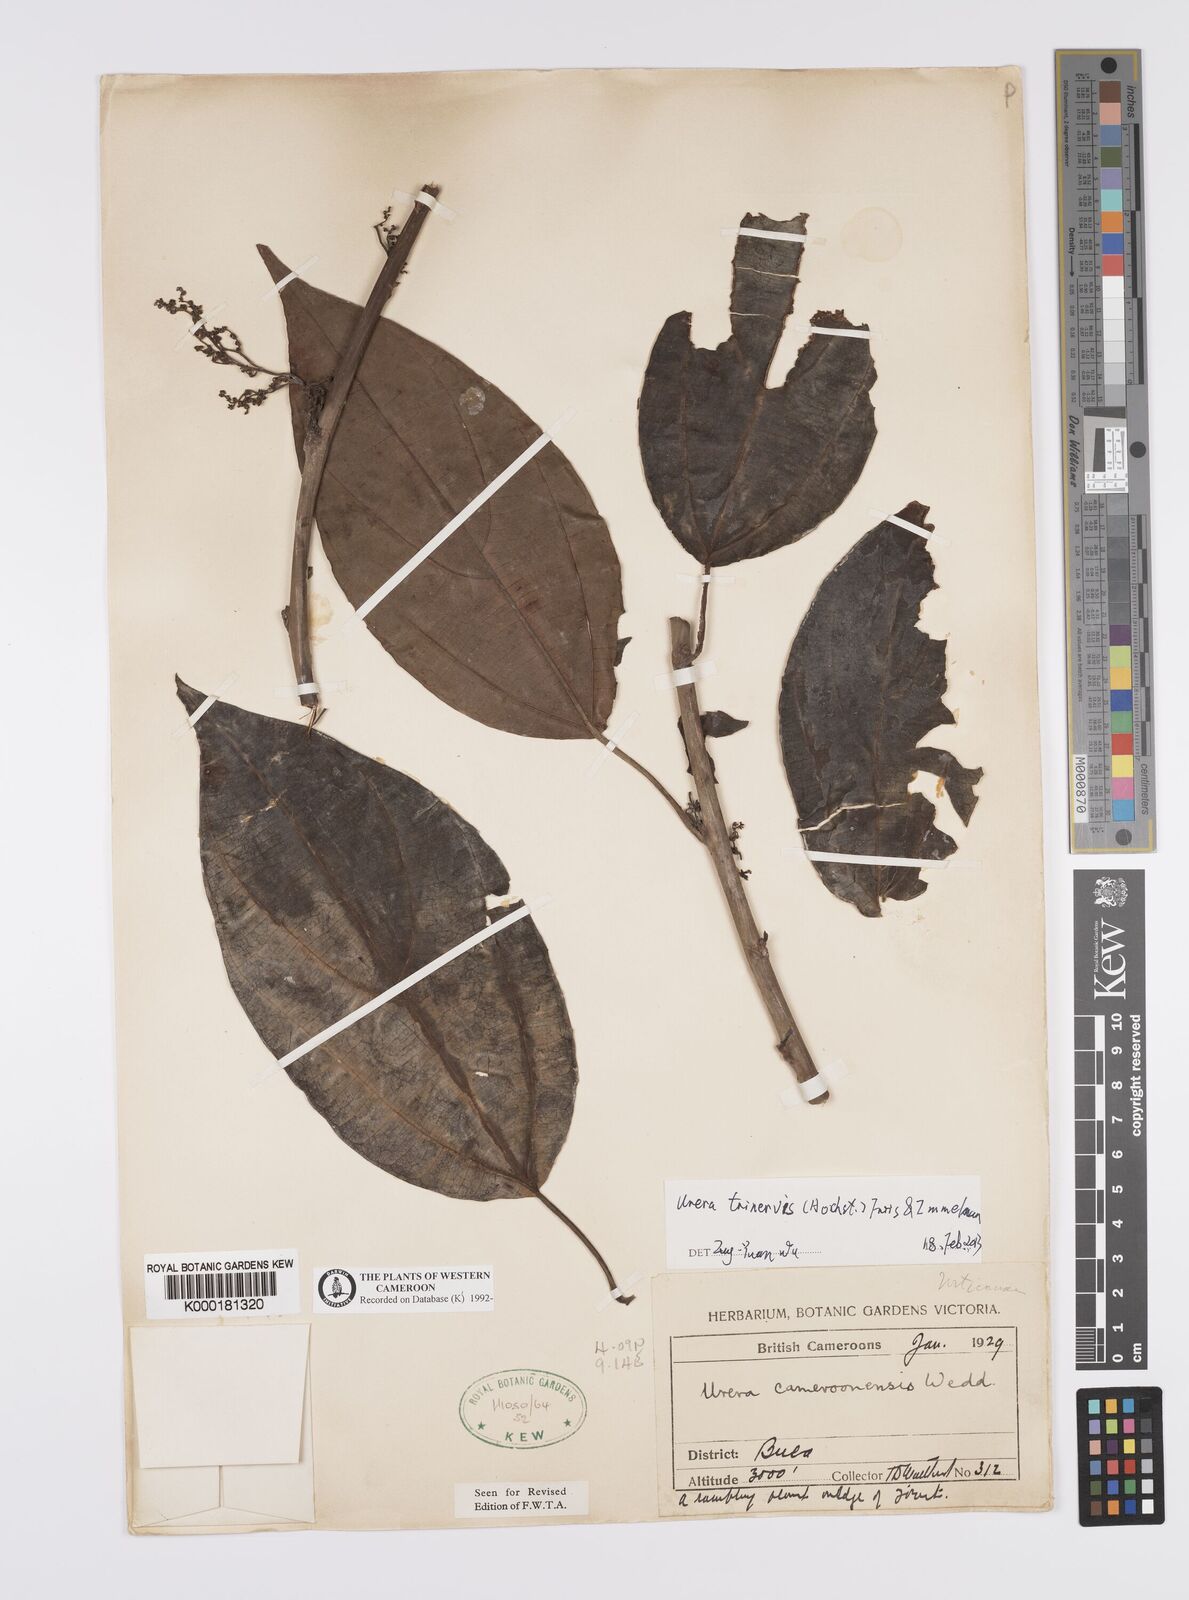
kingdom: Plantae
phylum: Tracheophyta
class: Magnoliopsida
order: Rosales
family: Urticaceae
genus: Scepocarpus
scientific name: Scepocarpus trinervis
